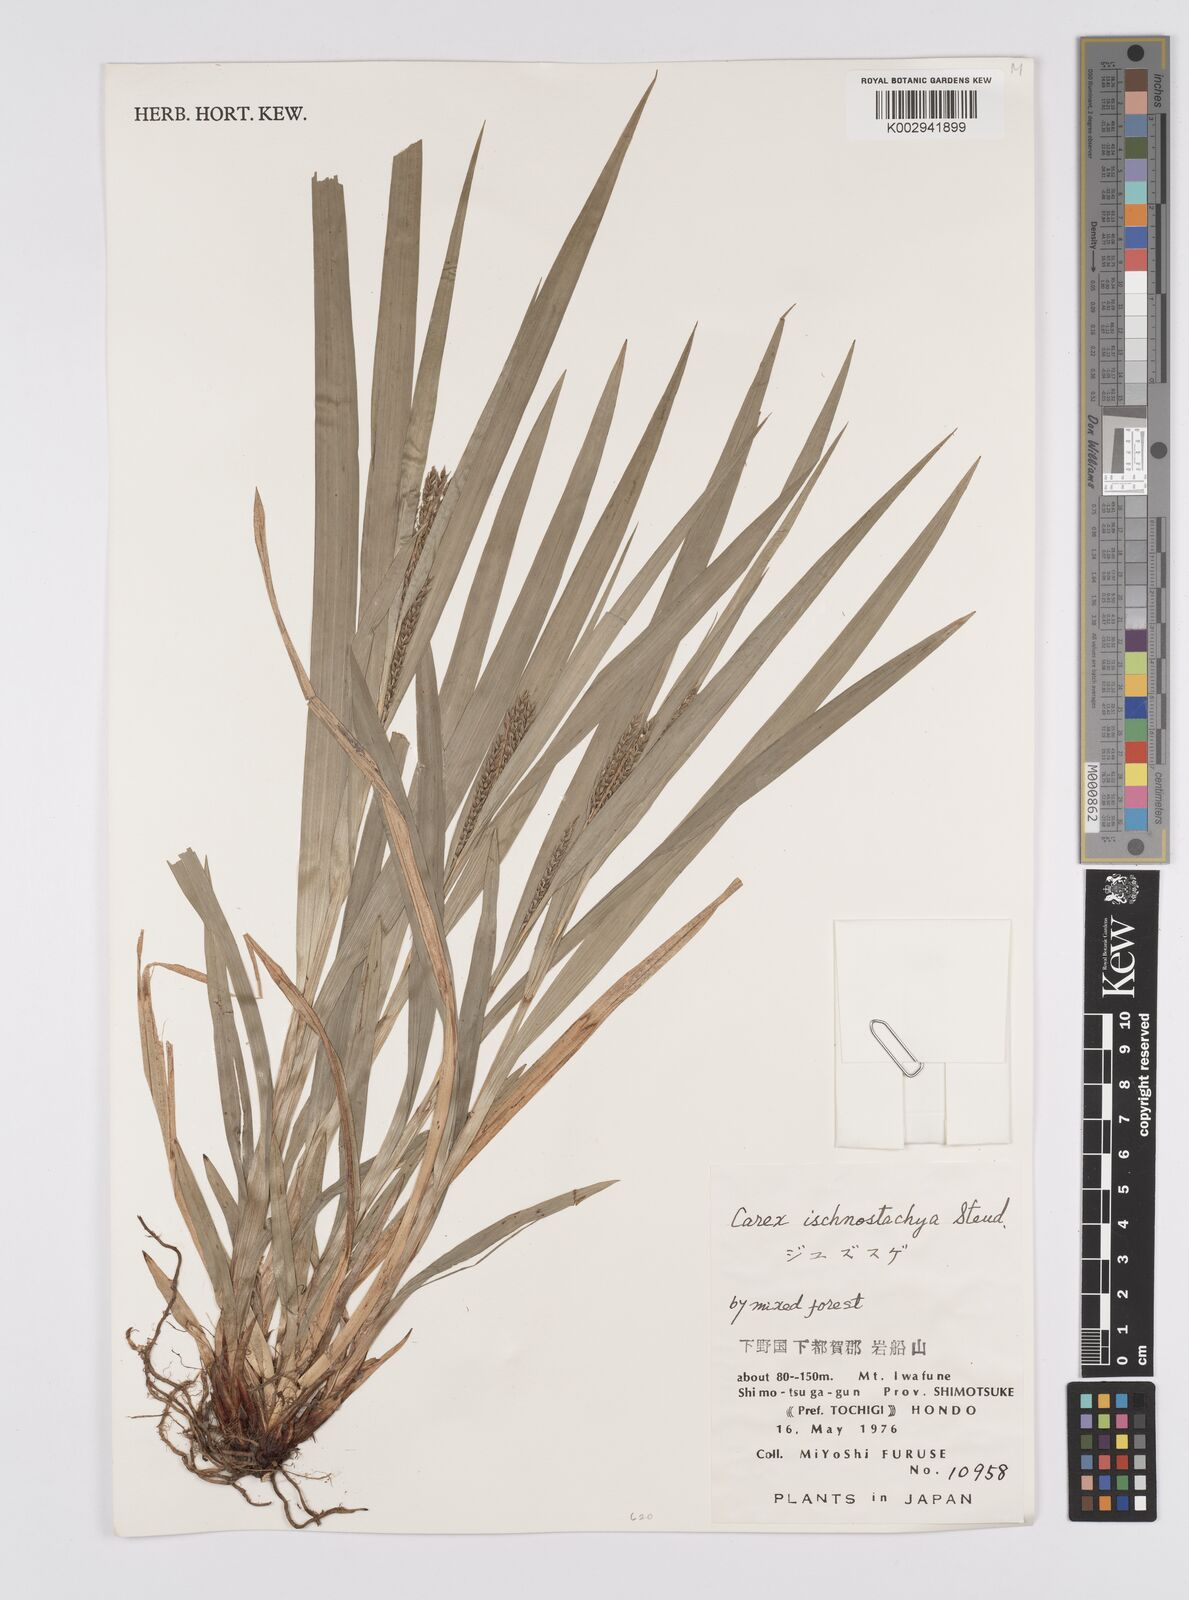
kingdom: Plantae
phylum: Tracheophyta
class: Liliopsida
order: Poales
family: Cyperaceae
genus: Carex
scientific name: Carex ischnostachya
